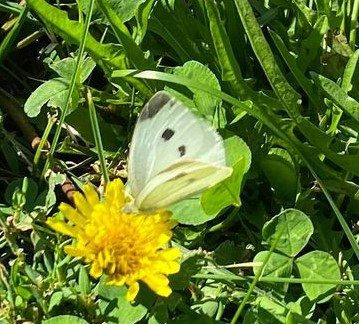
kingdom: Animalia
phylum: Arthropoda
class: Insecta
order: Lepidoptera
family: Pieridae
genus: Pieris
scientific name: Pieris rapae
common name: Cabbage White
